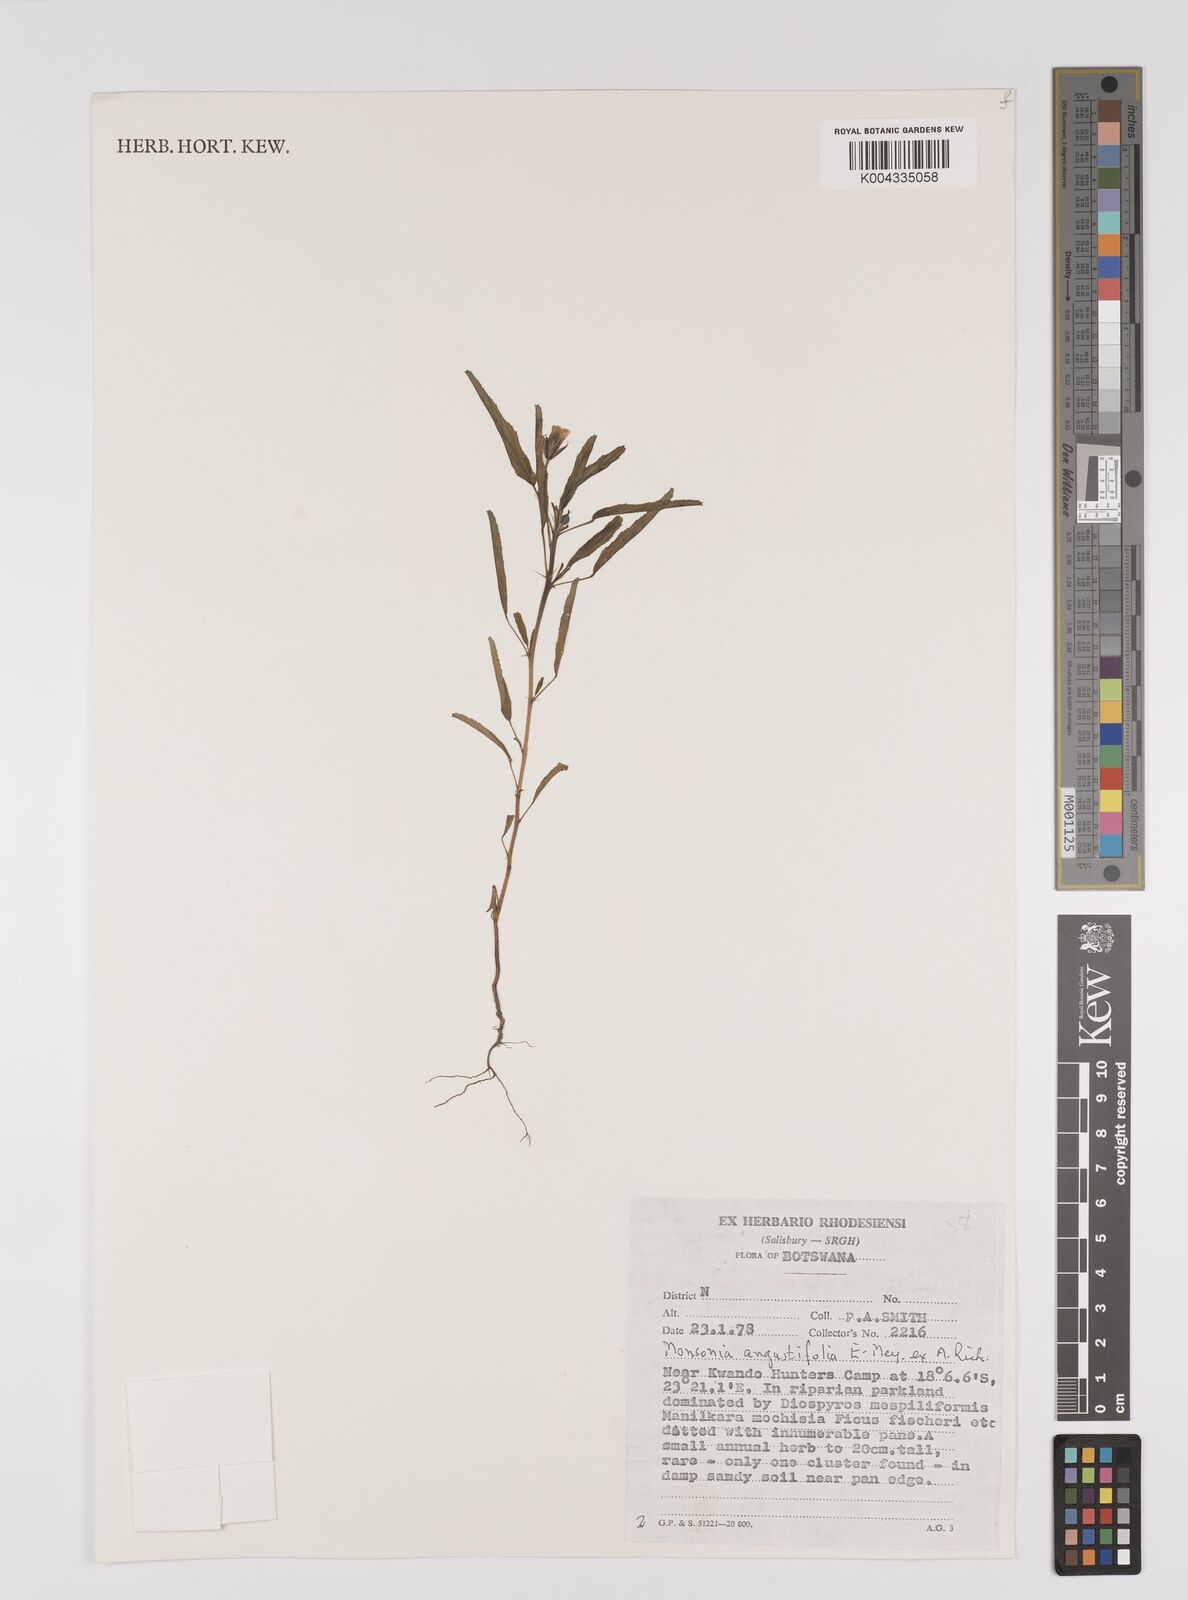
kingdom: Plantae
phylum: Tracheophyta
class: Magnoliopsida
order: Geraniales
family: Geraniaceae
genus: Monsonia
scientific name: Monsonia angustifolia
